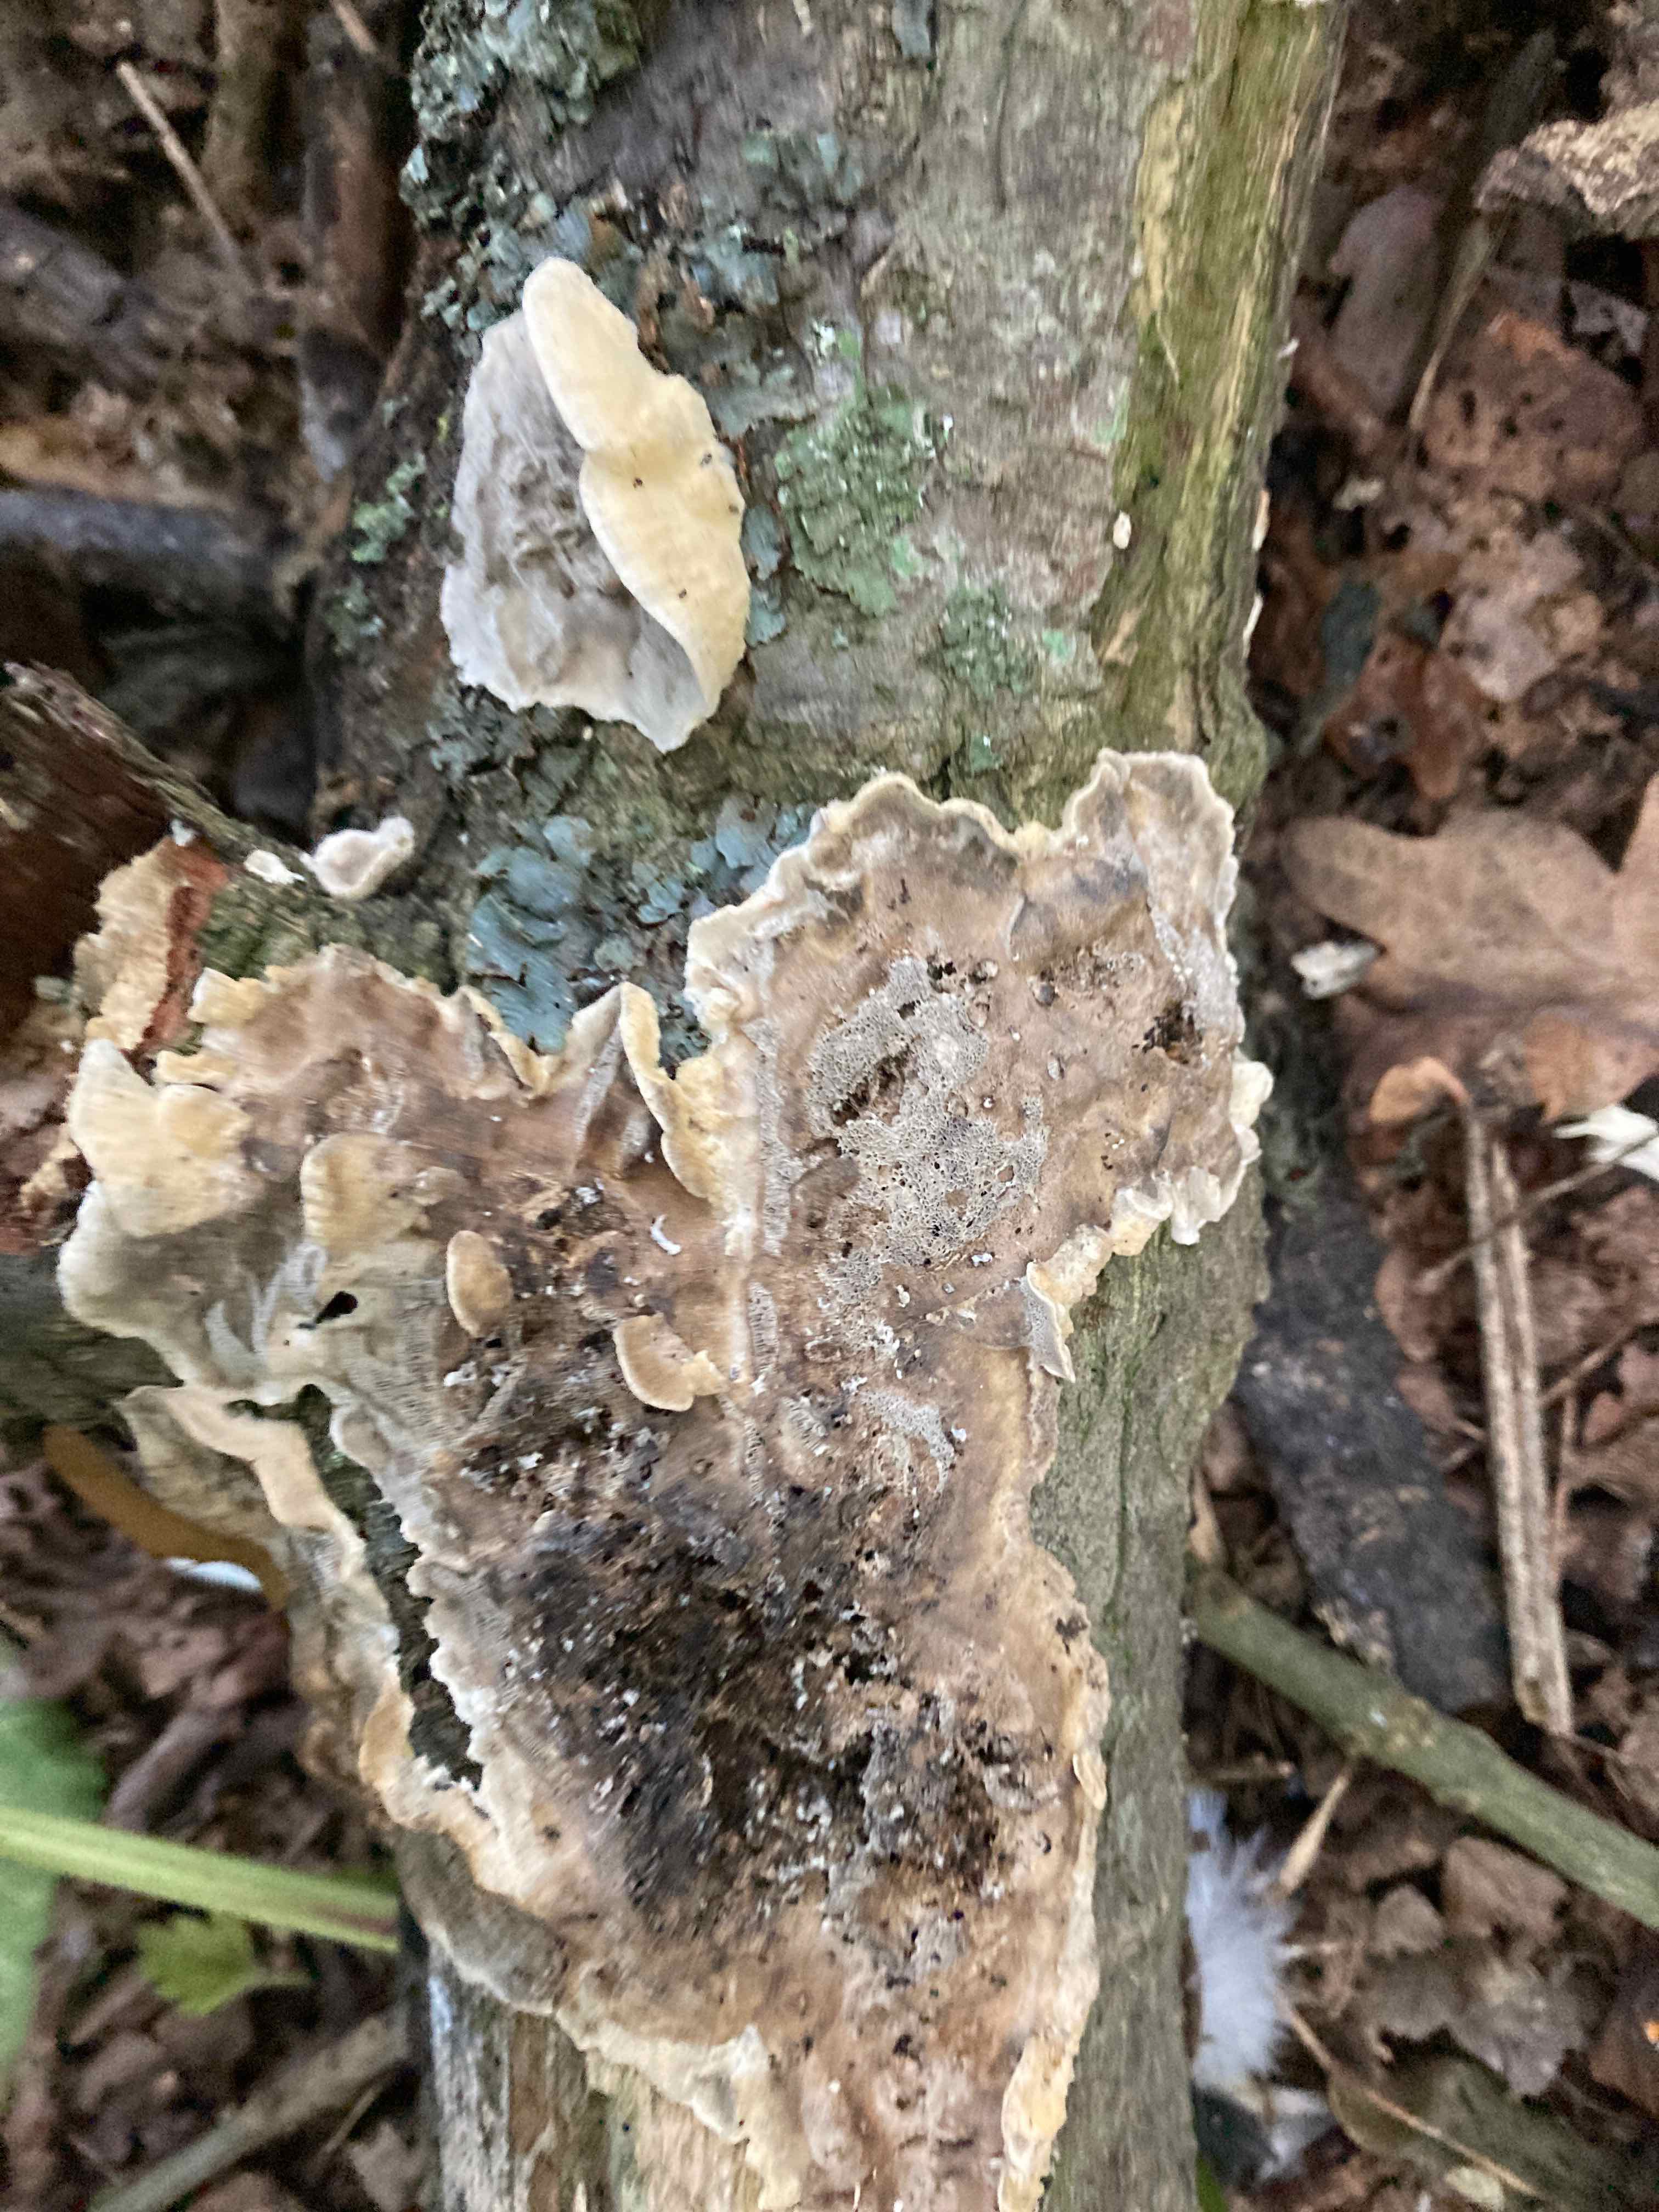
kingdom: Fungi
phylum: Basidiomycota
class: Agaricomycetes
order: Polyporales
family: Phanerochaetaceae
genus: Bjerkandera
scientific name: Bjerkandera adusta
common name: sveden sodporesvamp
